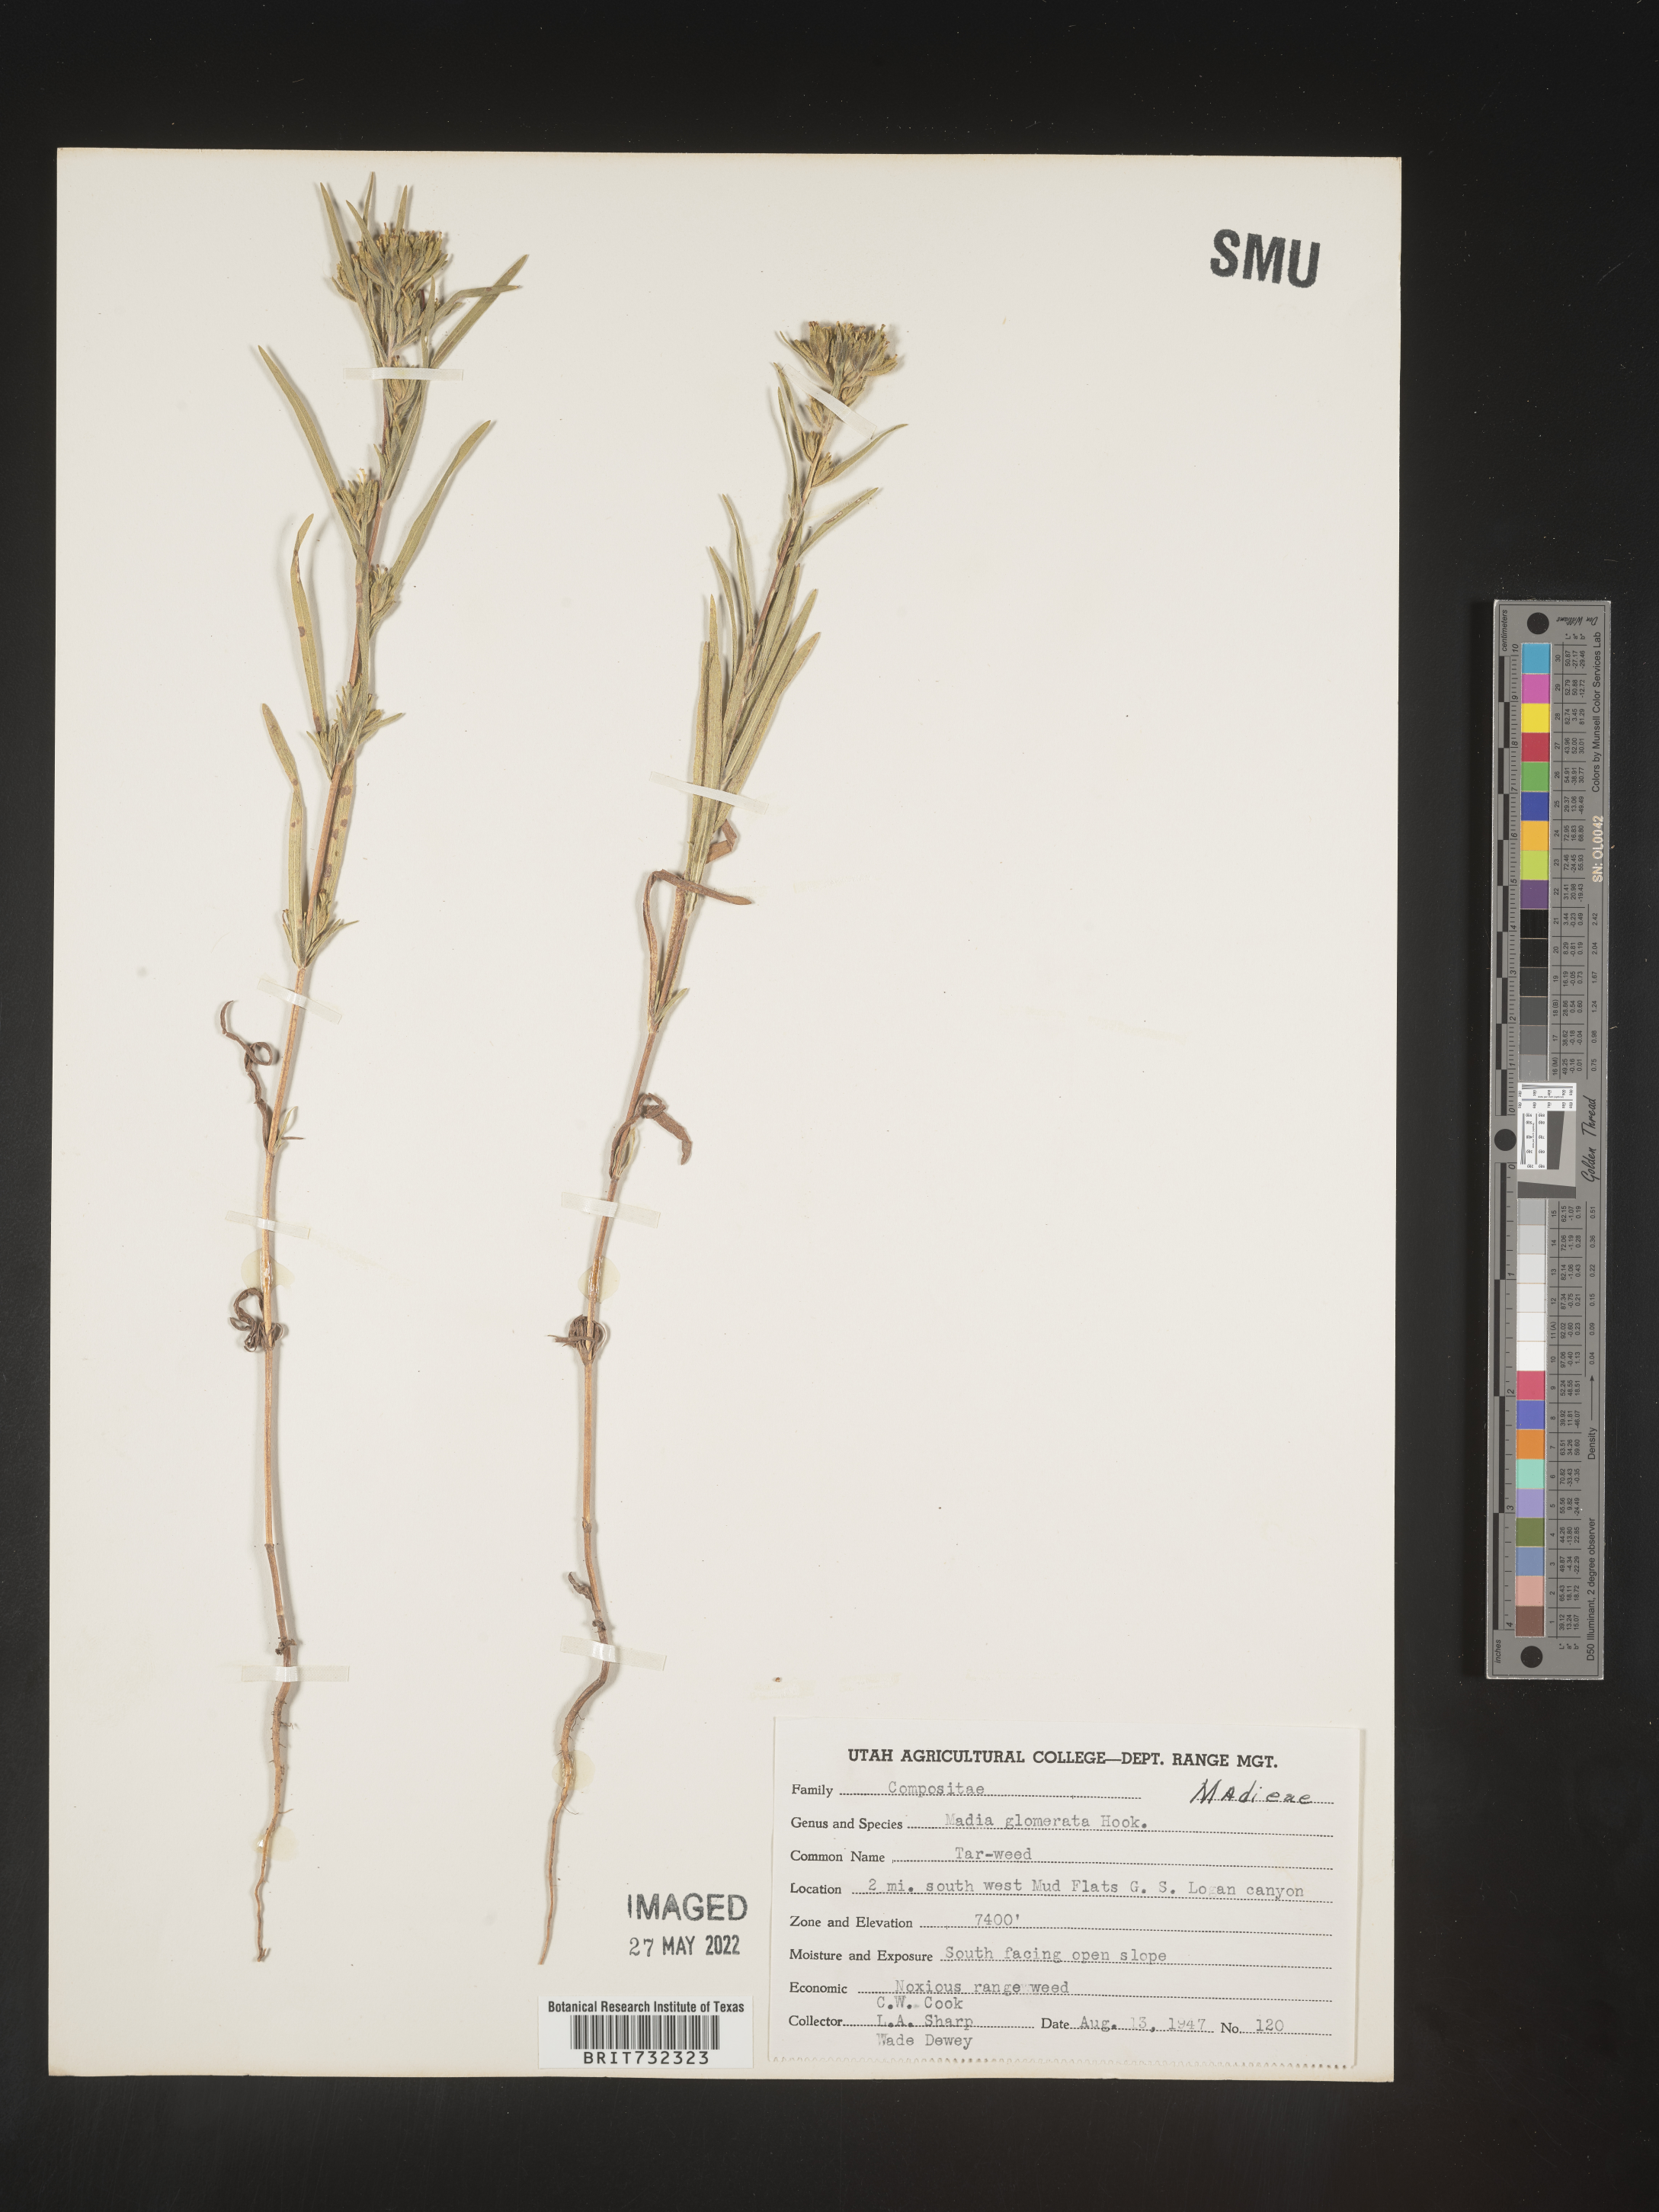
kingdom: Plantae
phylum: Tracheophyta
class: Magnoliopsida
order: Asterales
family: Asteraceae
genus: Madia
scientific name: Madia glomerata
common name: Mountain tarweed
